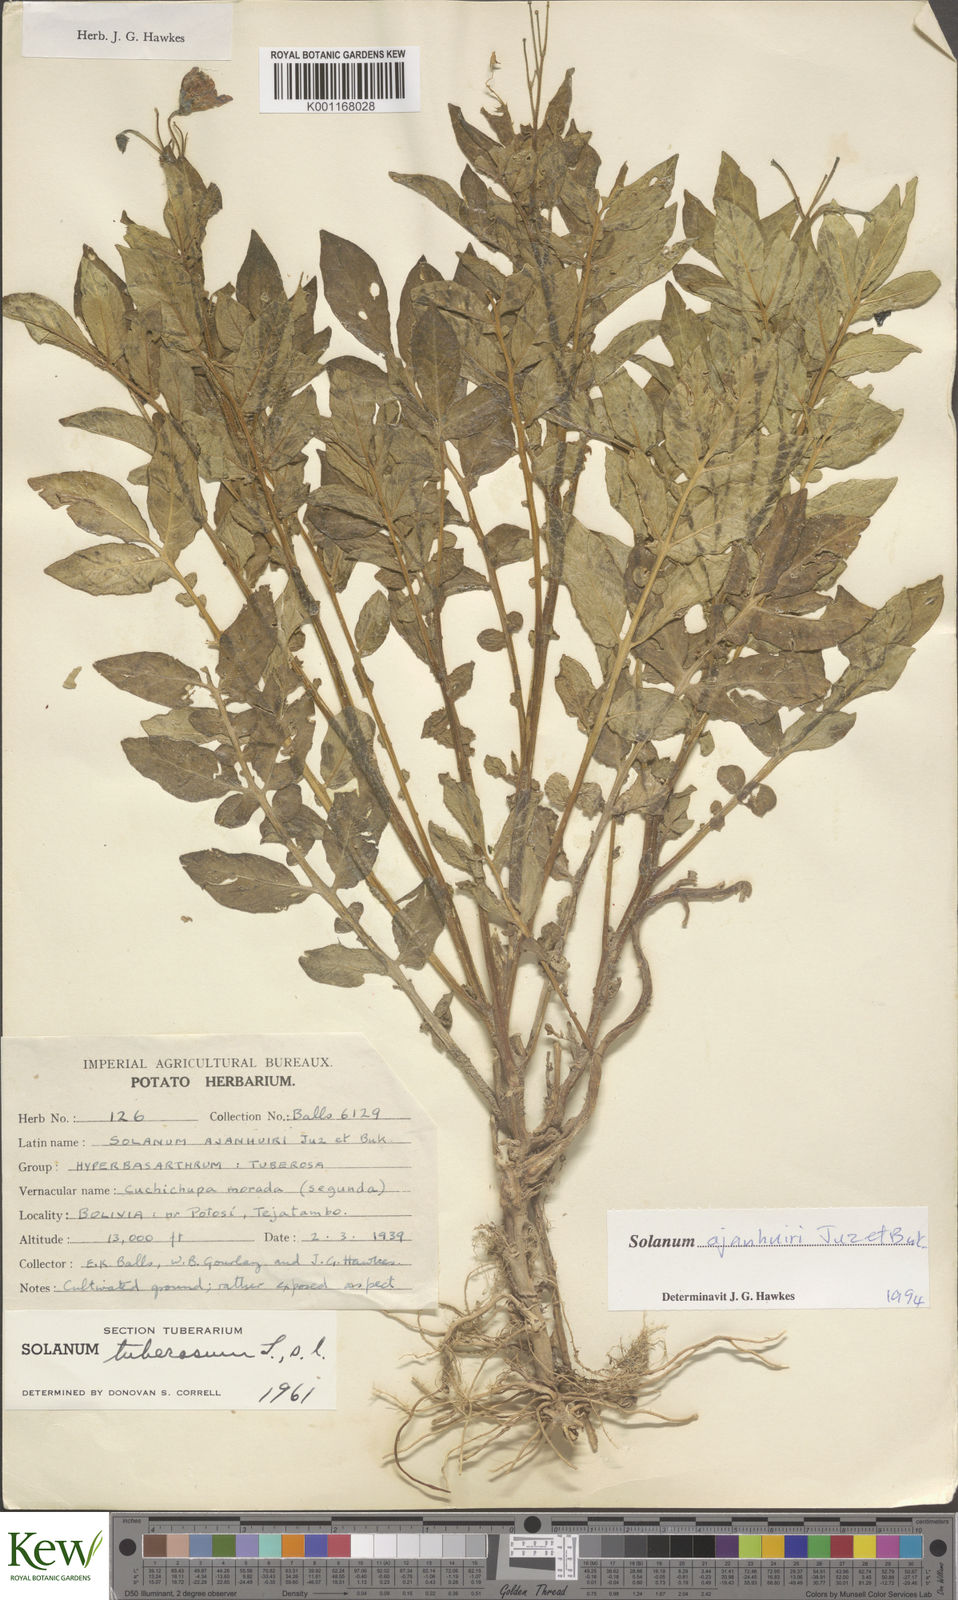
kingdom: Plantae
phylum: Tracheophyta
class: Magnoliopsida
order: Solanales
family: Solanaceae
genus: Solanum
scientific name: Solanum ajanhuiri
